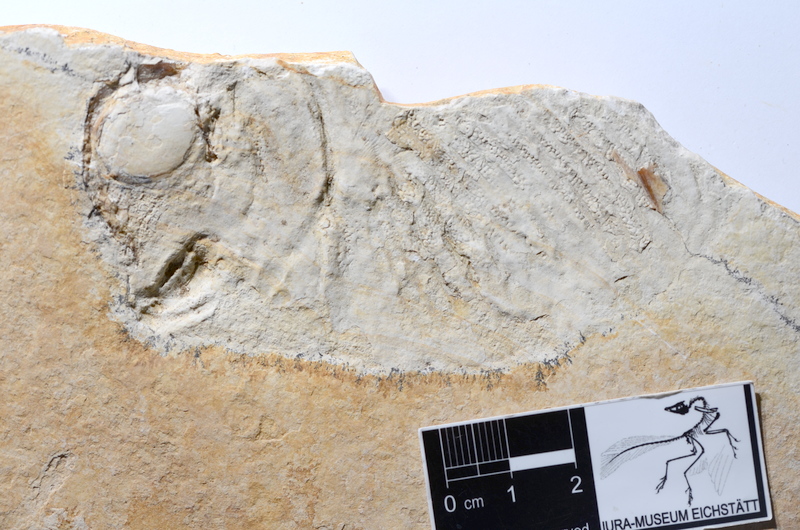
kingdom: Animalia
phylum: Chordata
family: Gyrodontidae
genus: Gyrodus
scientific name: Gyrodus hexagonus
